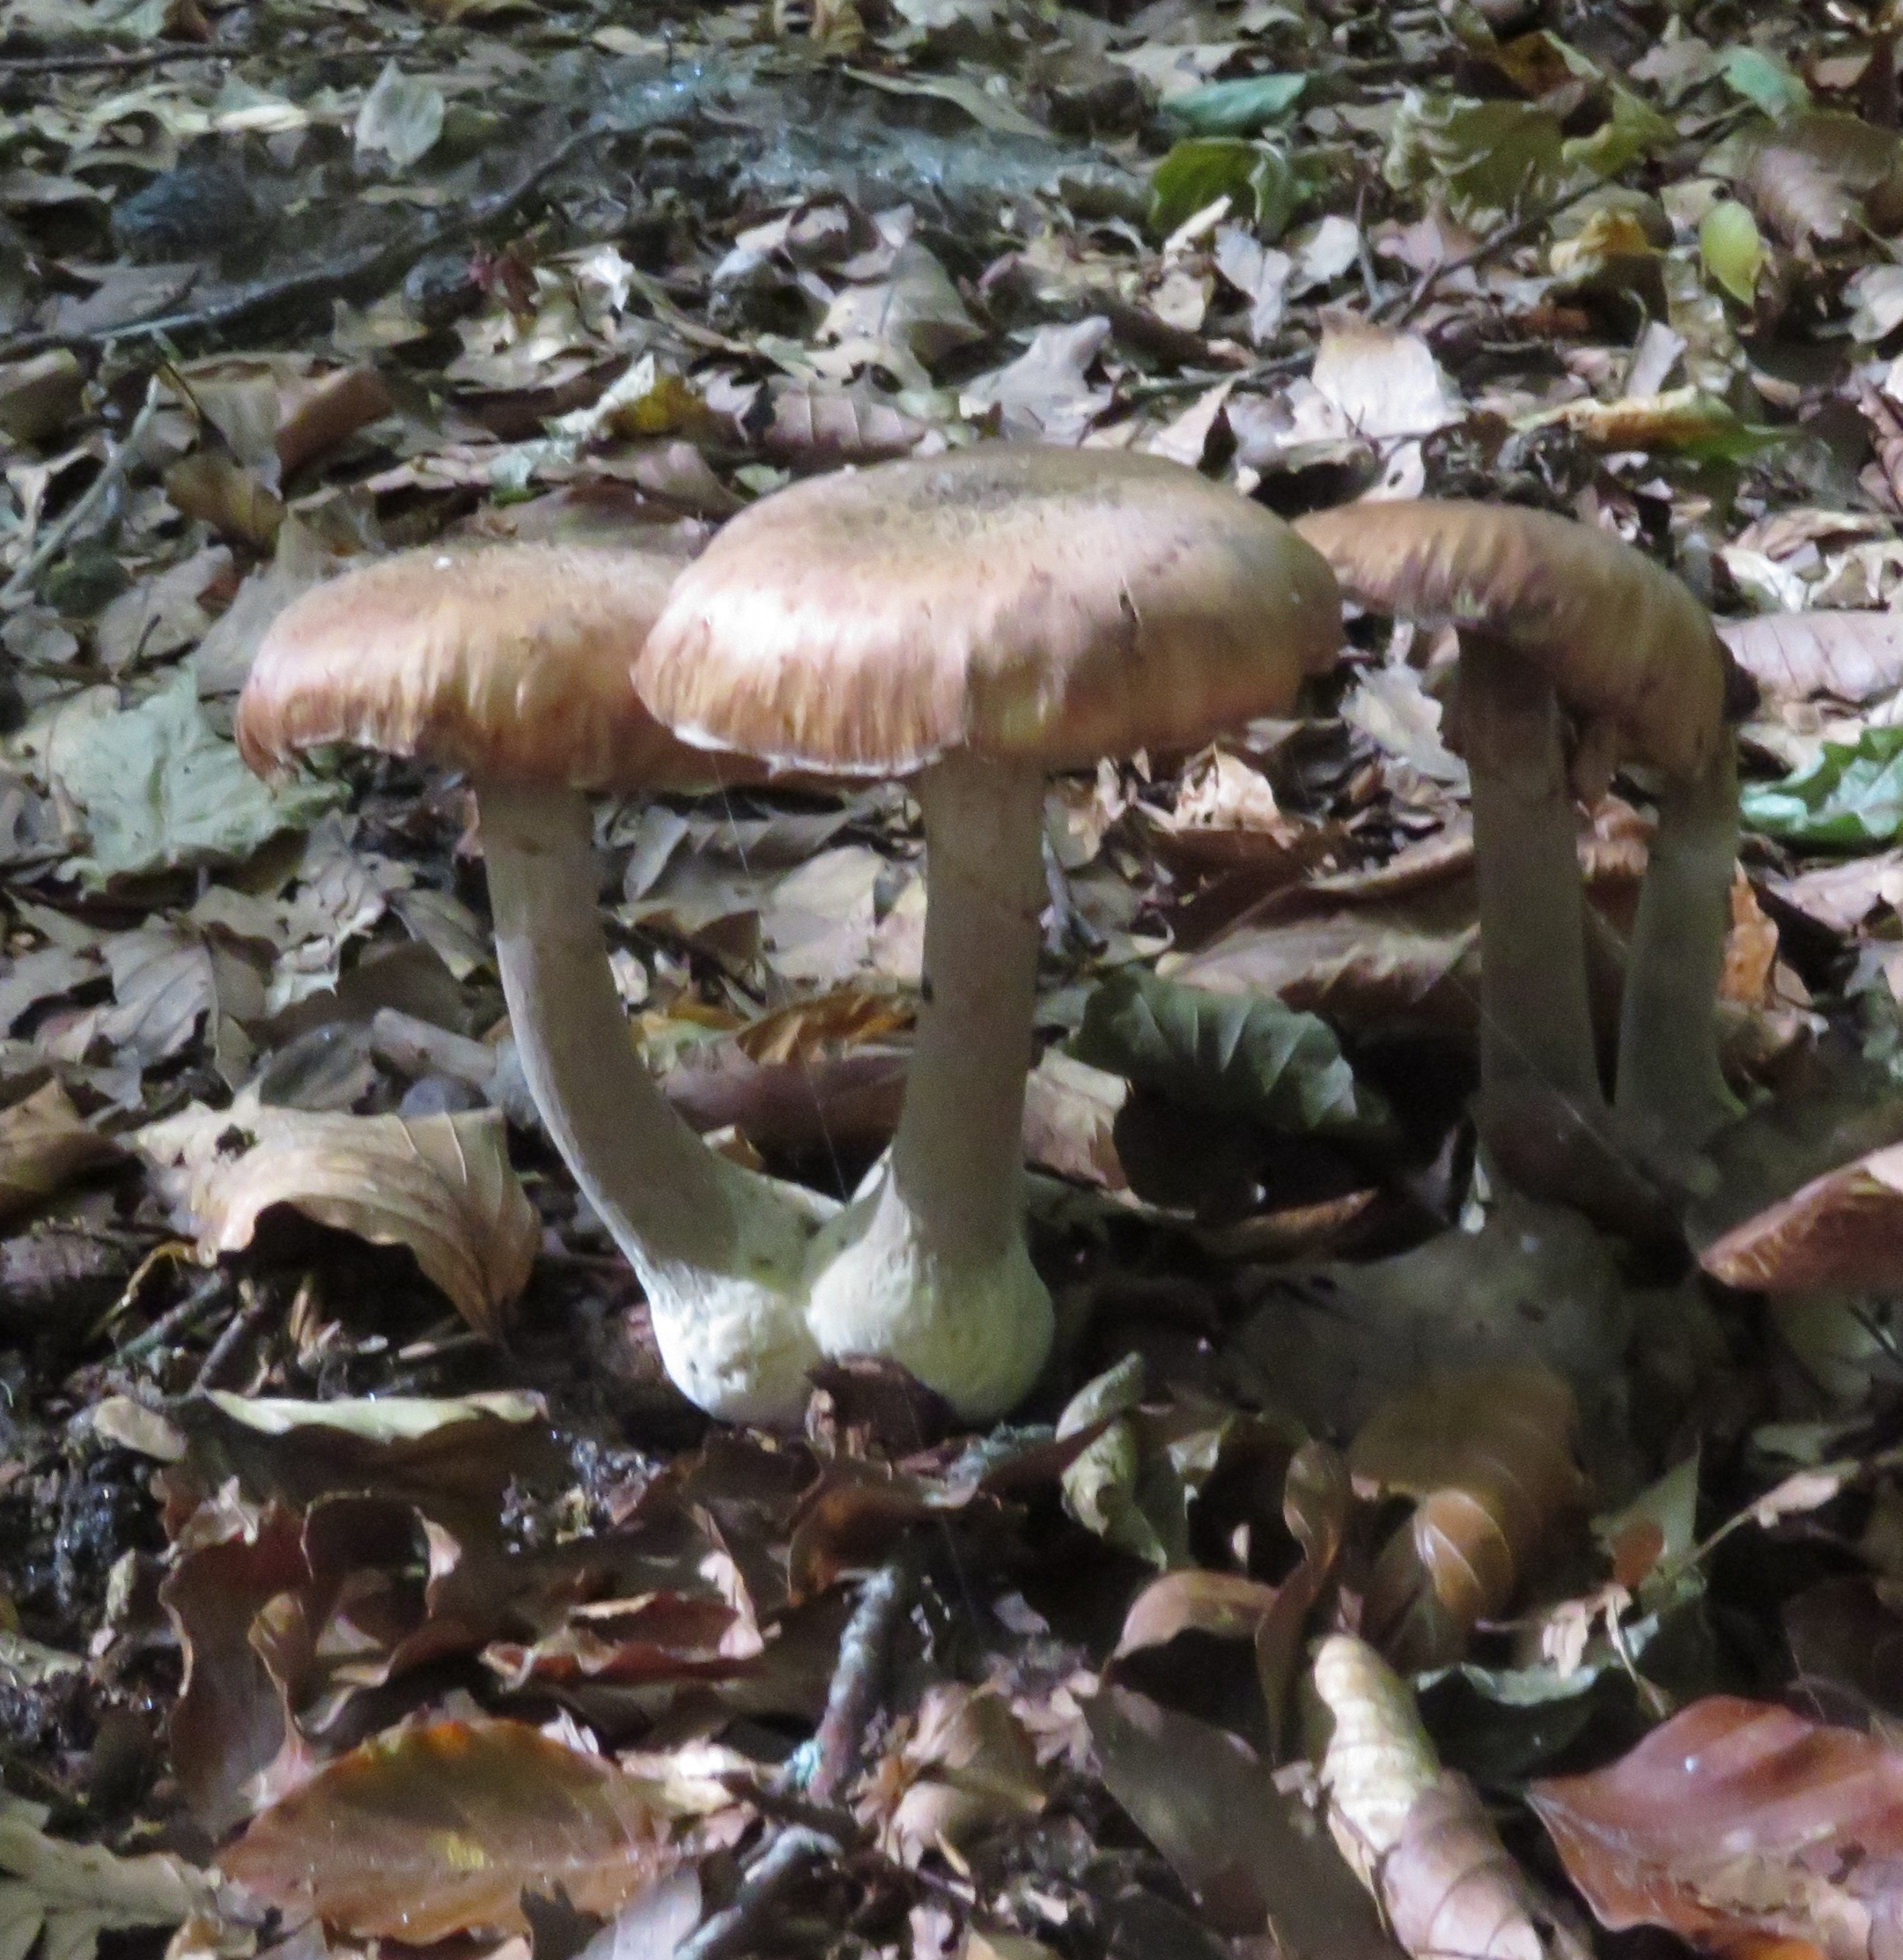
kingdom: Fungi
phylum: Basidiomycota
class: Agaricomycetes
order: Agaricales
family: Physalacriaceae
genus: Armillaria
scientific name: Armillaria lutea
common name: Køllestokket honningsvamp
